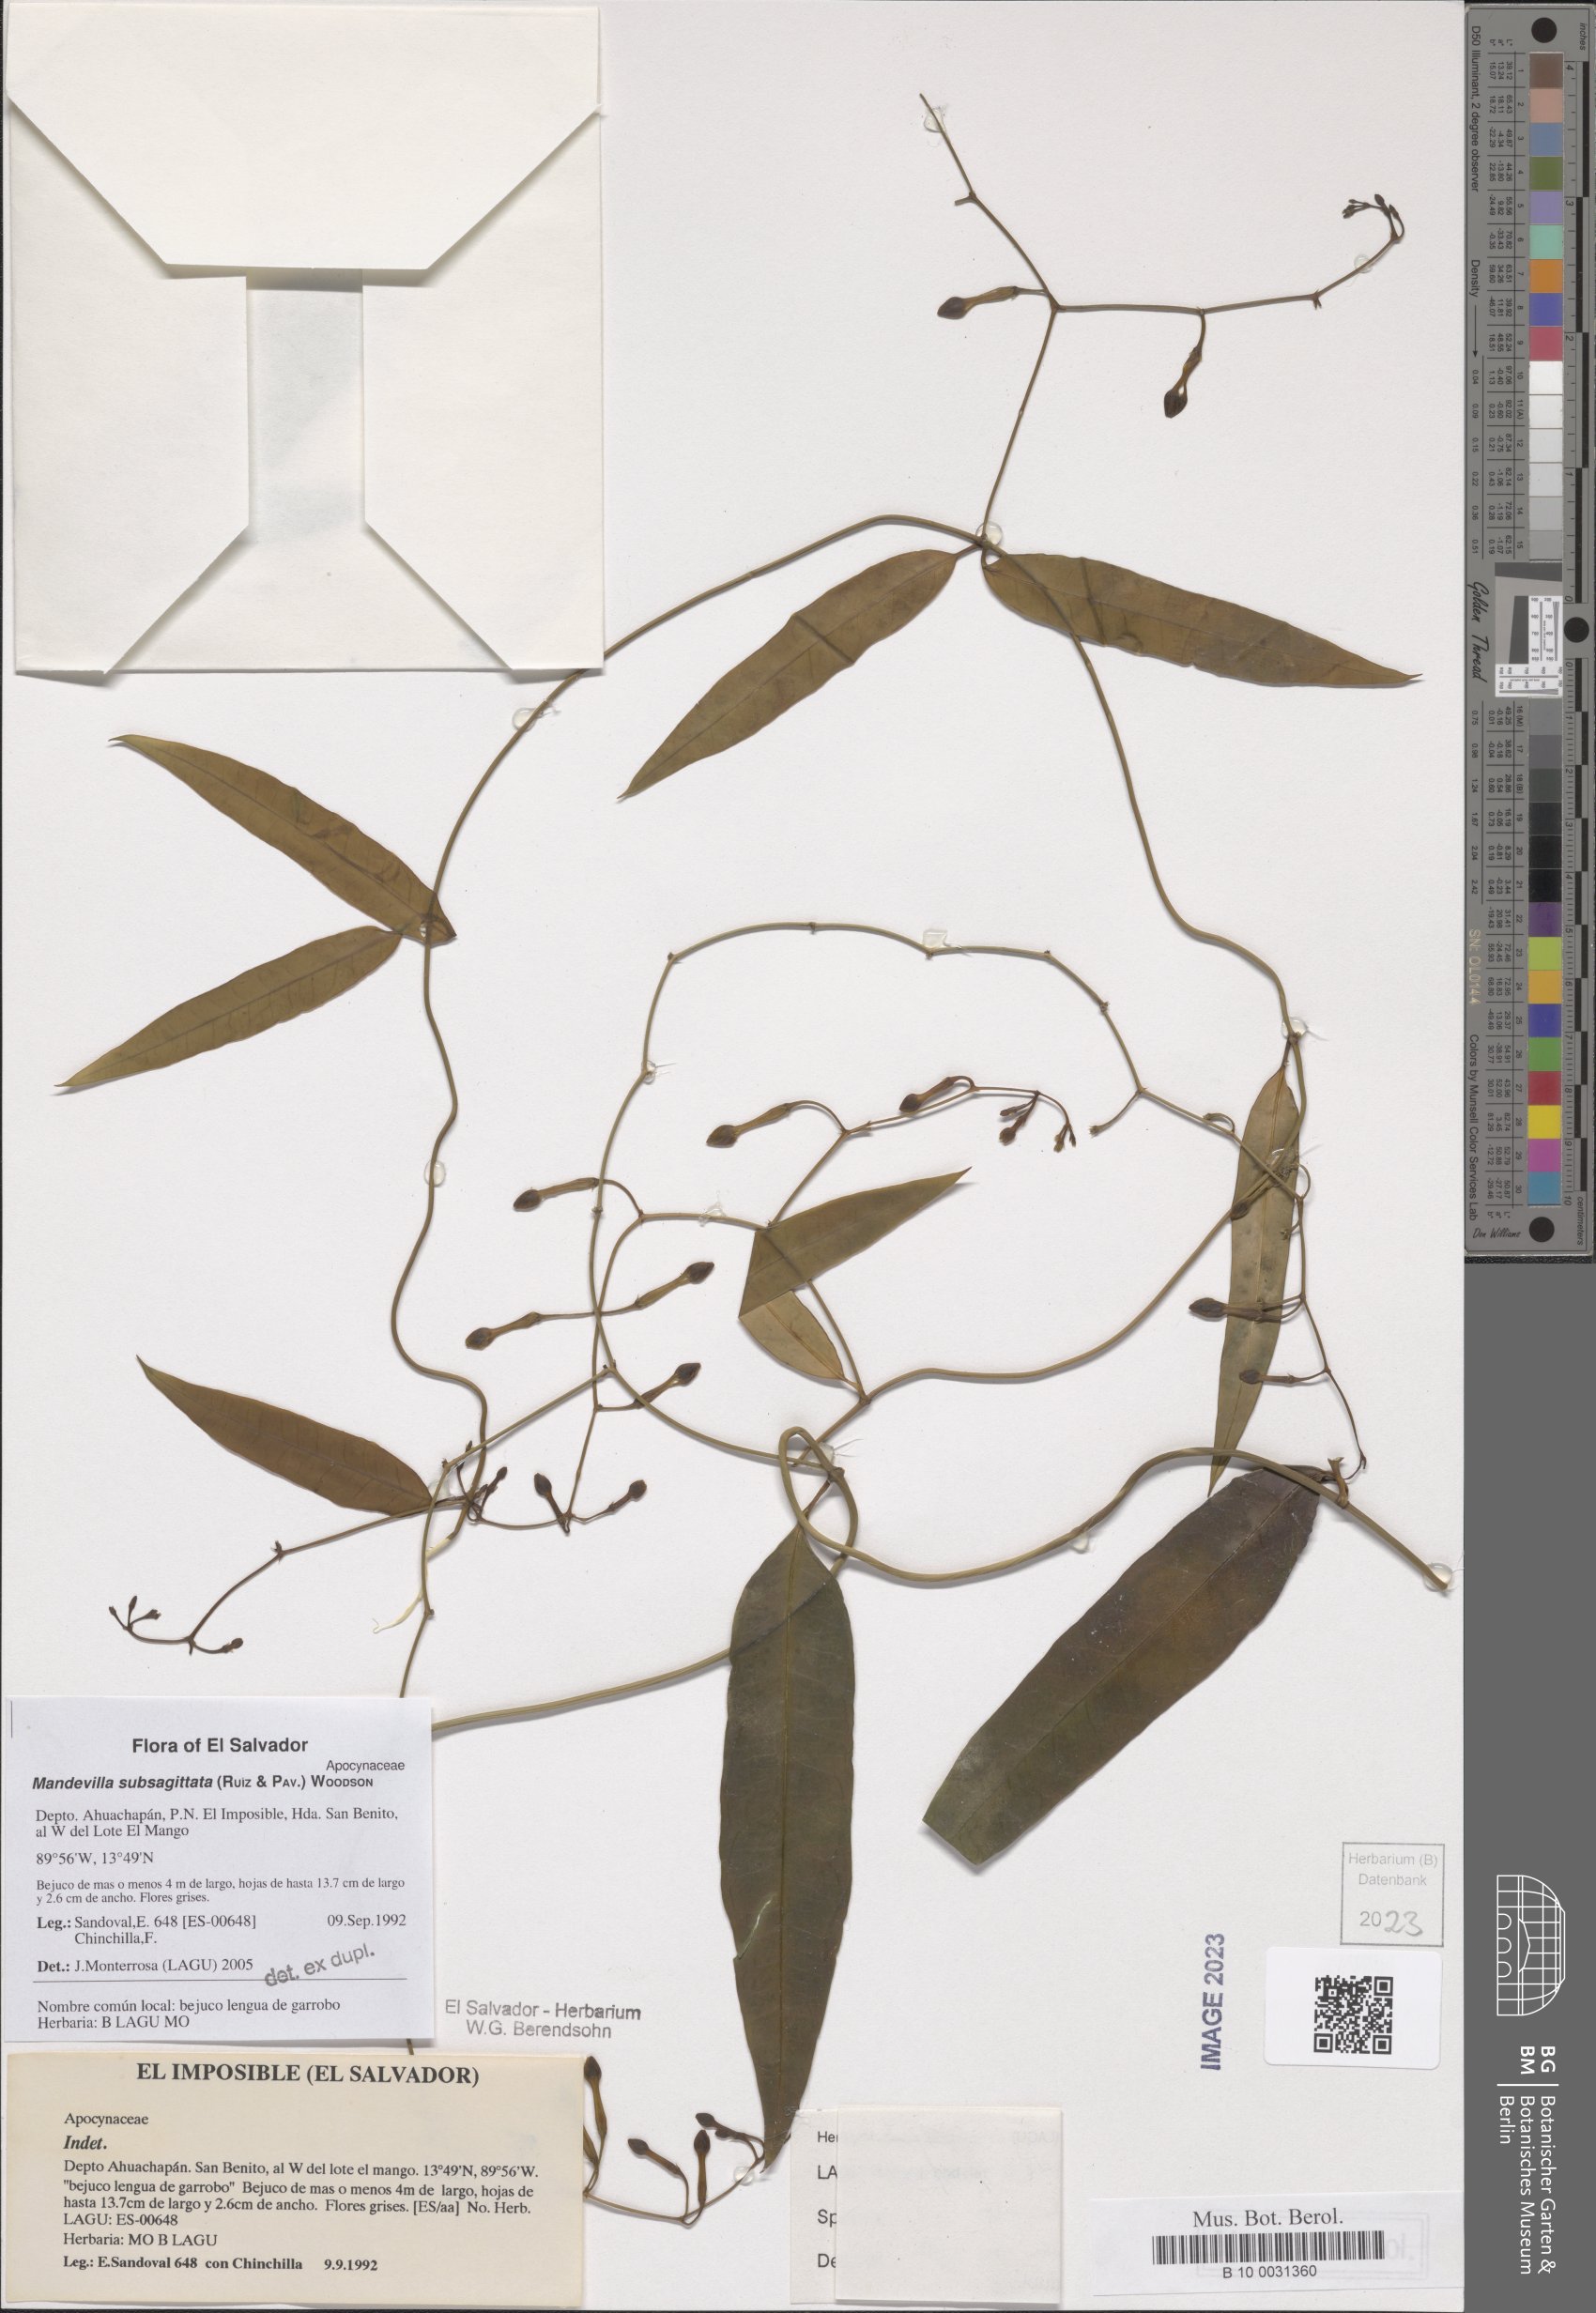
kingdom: Plantae
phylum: Tracheophyta
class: Magnoliopsida
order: Gentianales
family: Apocynaceae
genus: Mandevilla
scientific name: Mandevilla subsagittata
